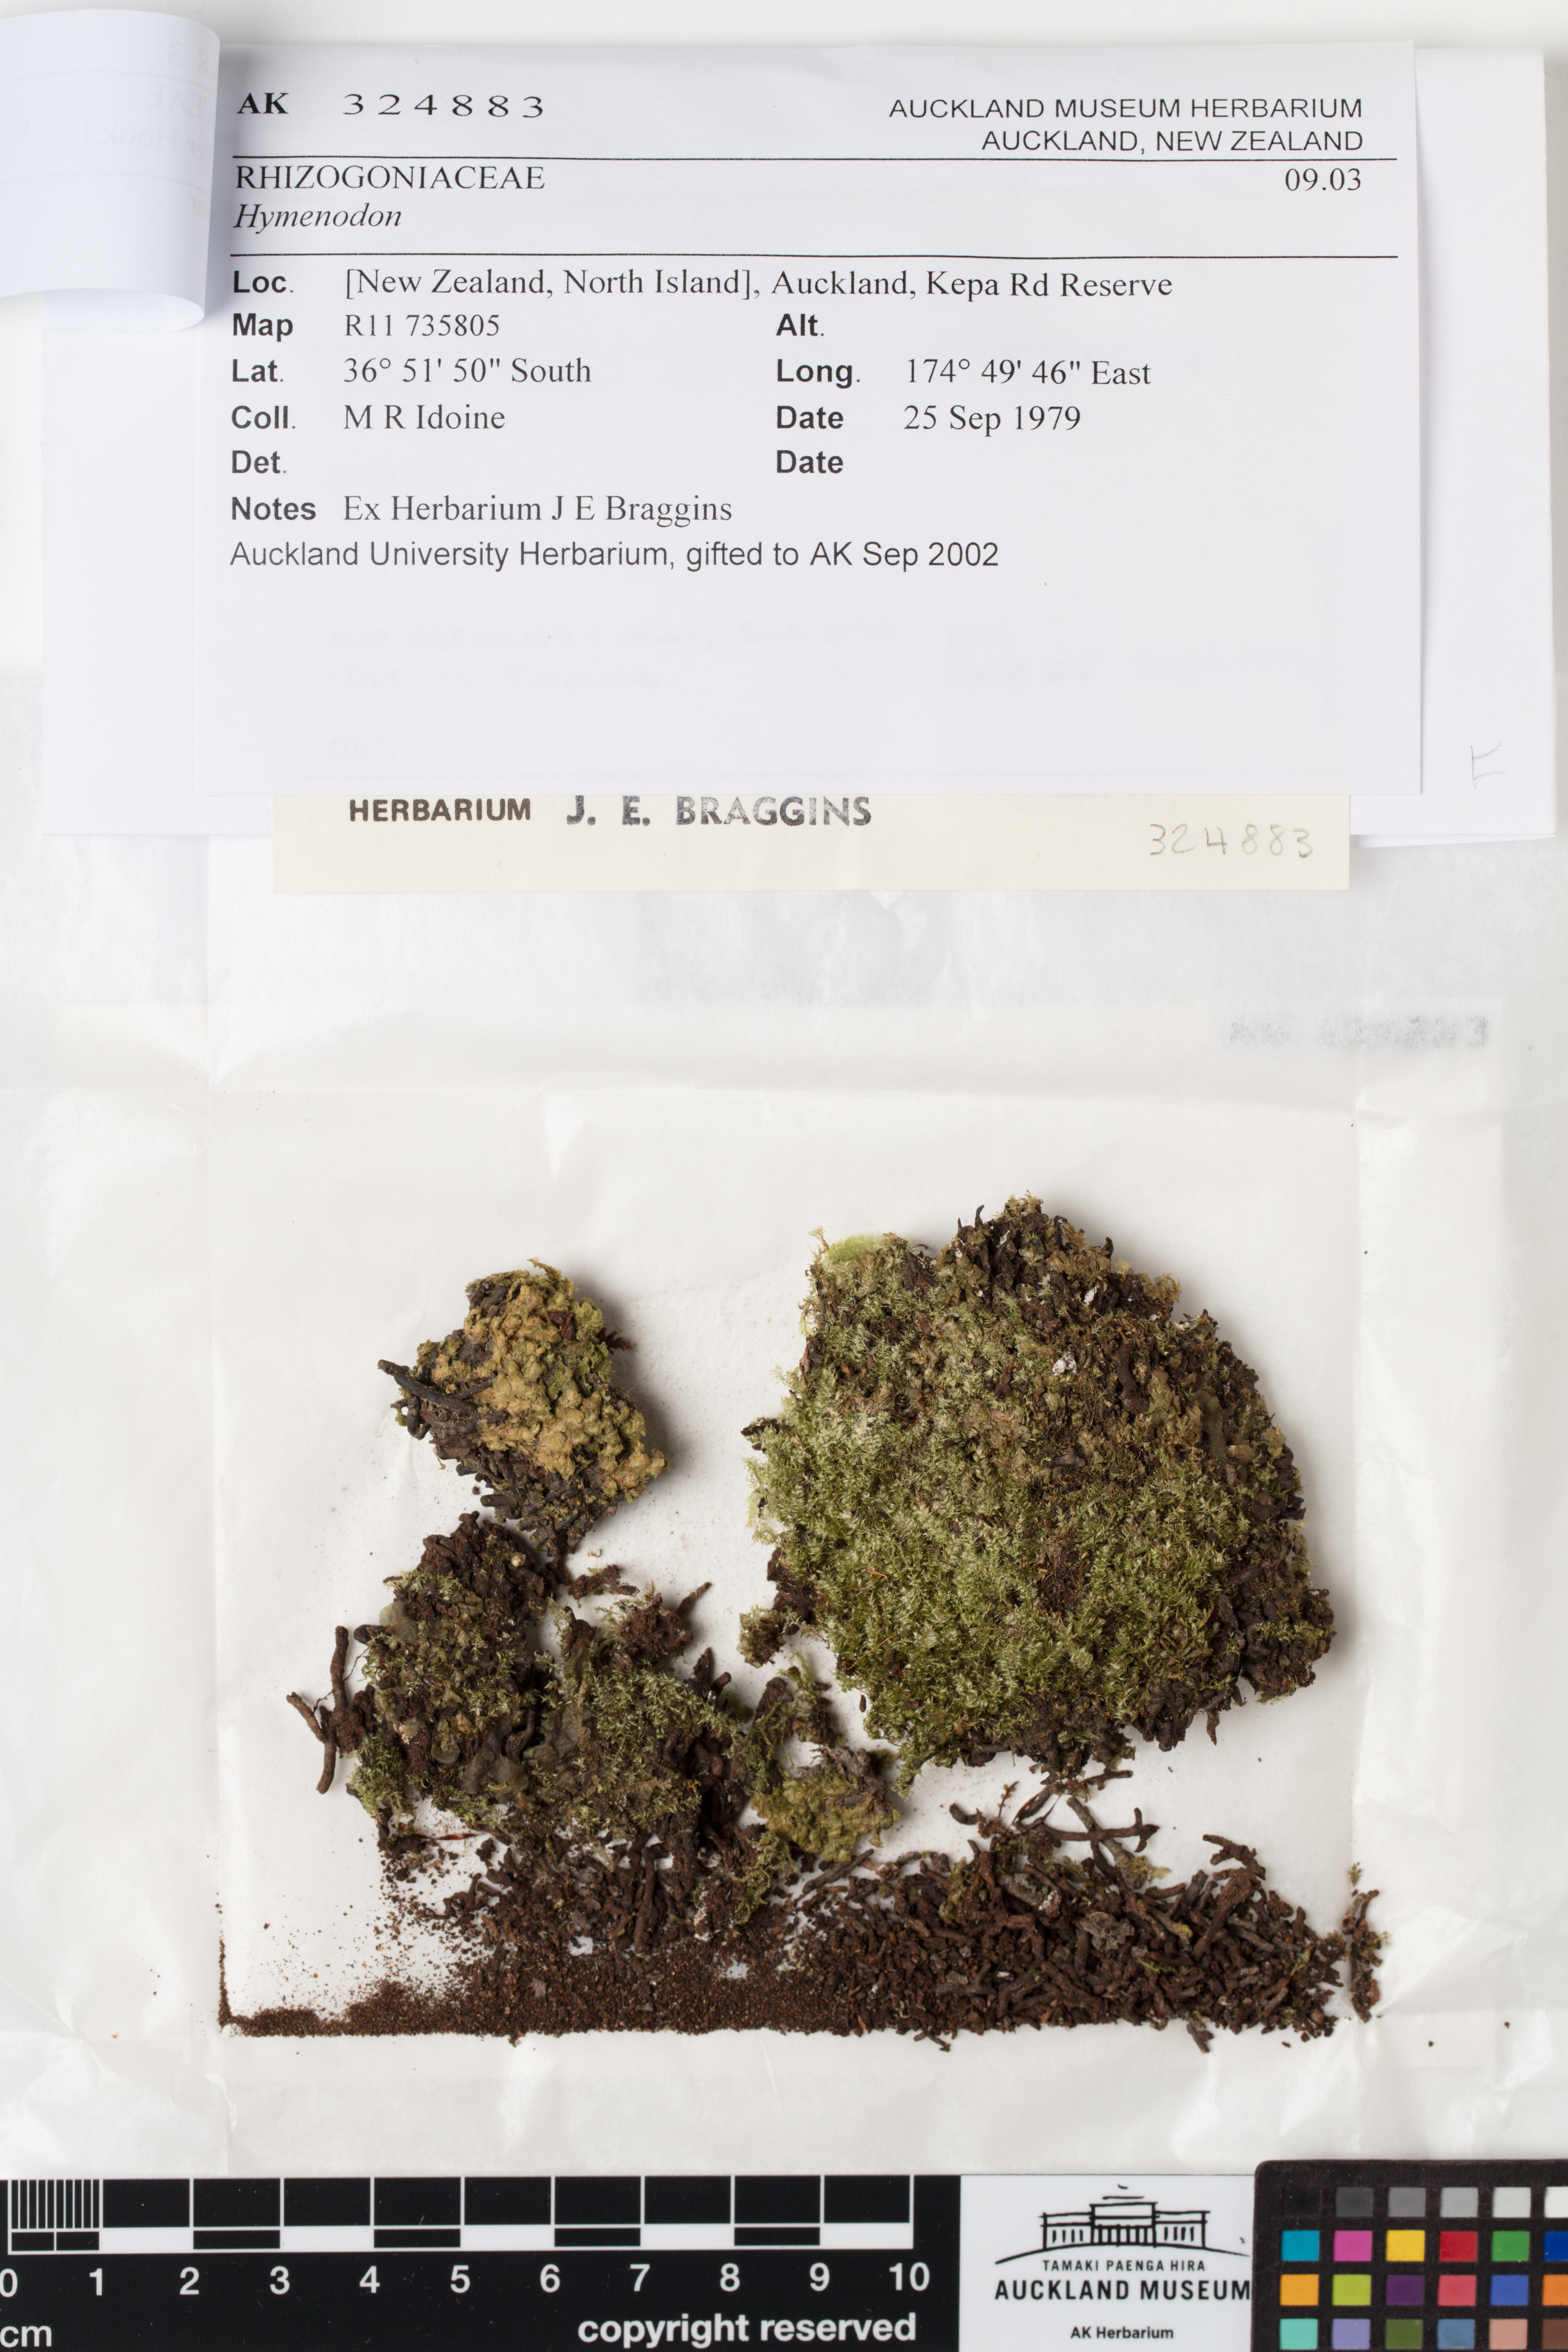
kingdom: Plantae
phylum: Bryophyta
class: Bryopsida
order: Orthodontiales
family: Orthodontiaceae
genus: Hymenodon
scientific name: Hymenodon pilifer
